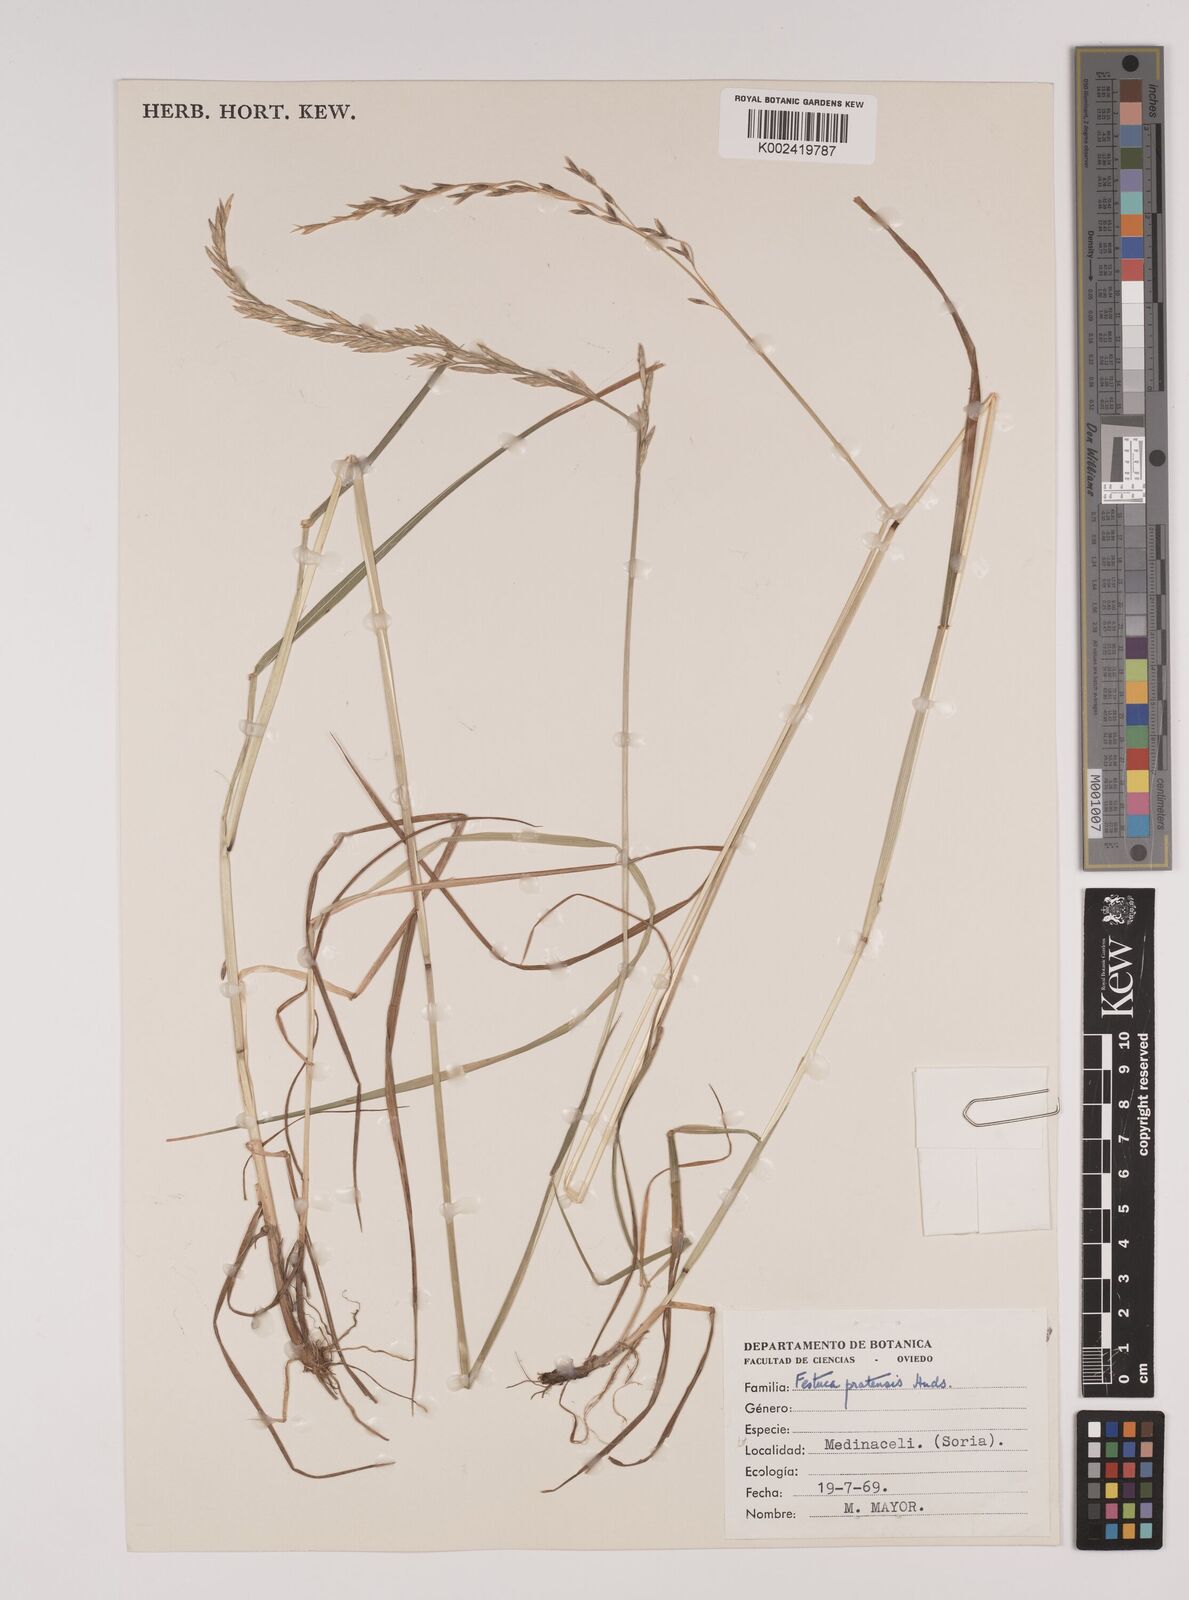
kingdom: Plantae
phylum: Tracheophyta
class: Liliopsida
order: Poales
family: Poaceae
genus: Festuca
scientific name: Festuca
